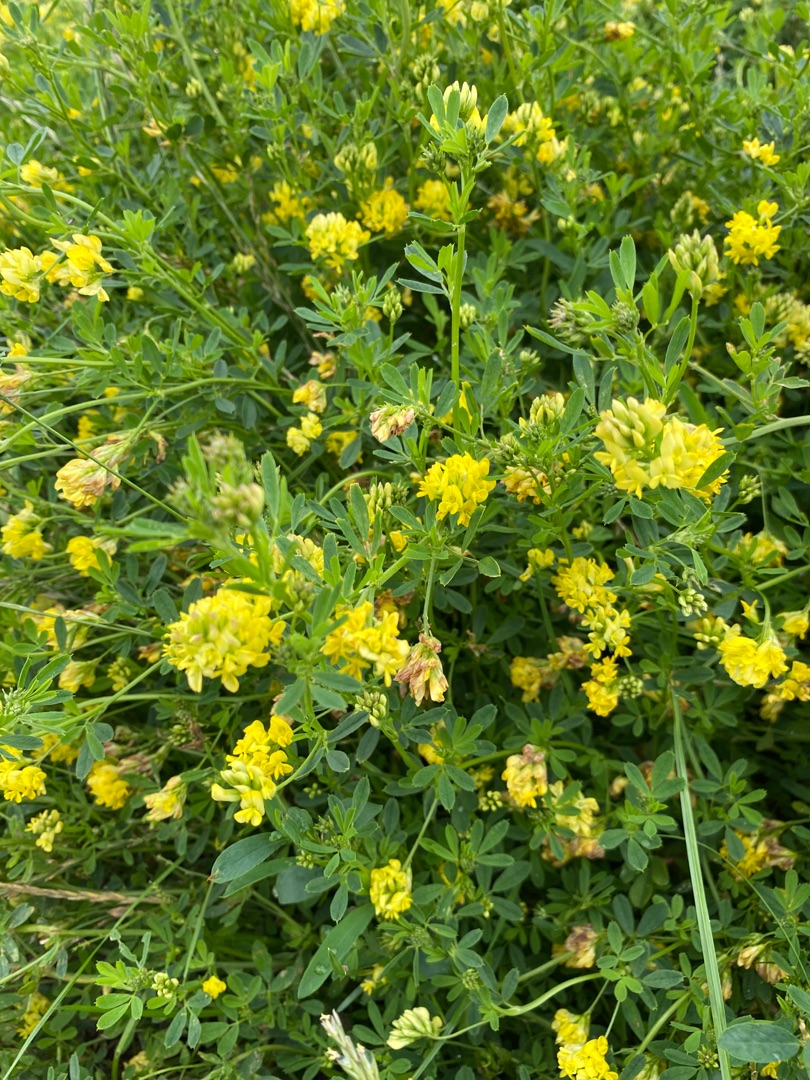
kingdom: Plantae
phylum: Tracheophyta
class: Magnoliopsida
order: Fabales
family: Fabaceae
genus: Medicago
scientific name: Medicago falcata
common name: Segl-sneglebælg
